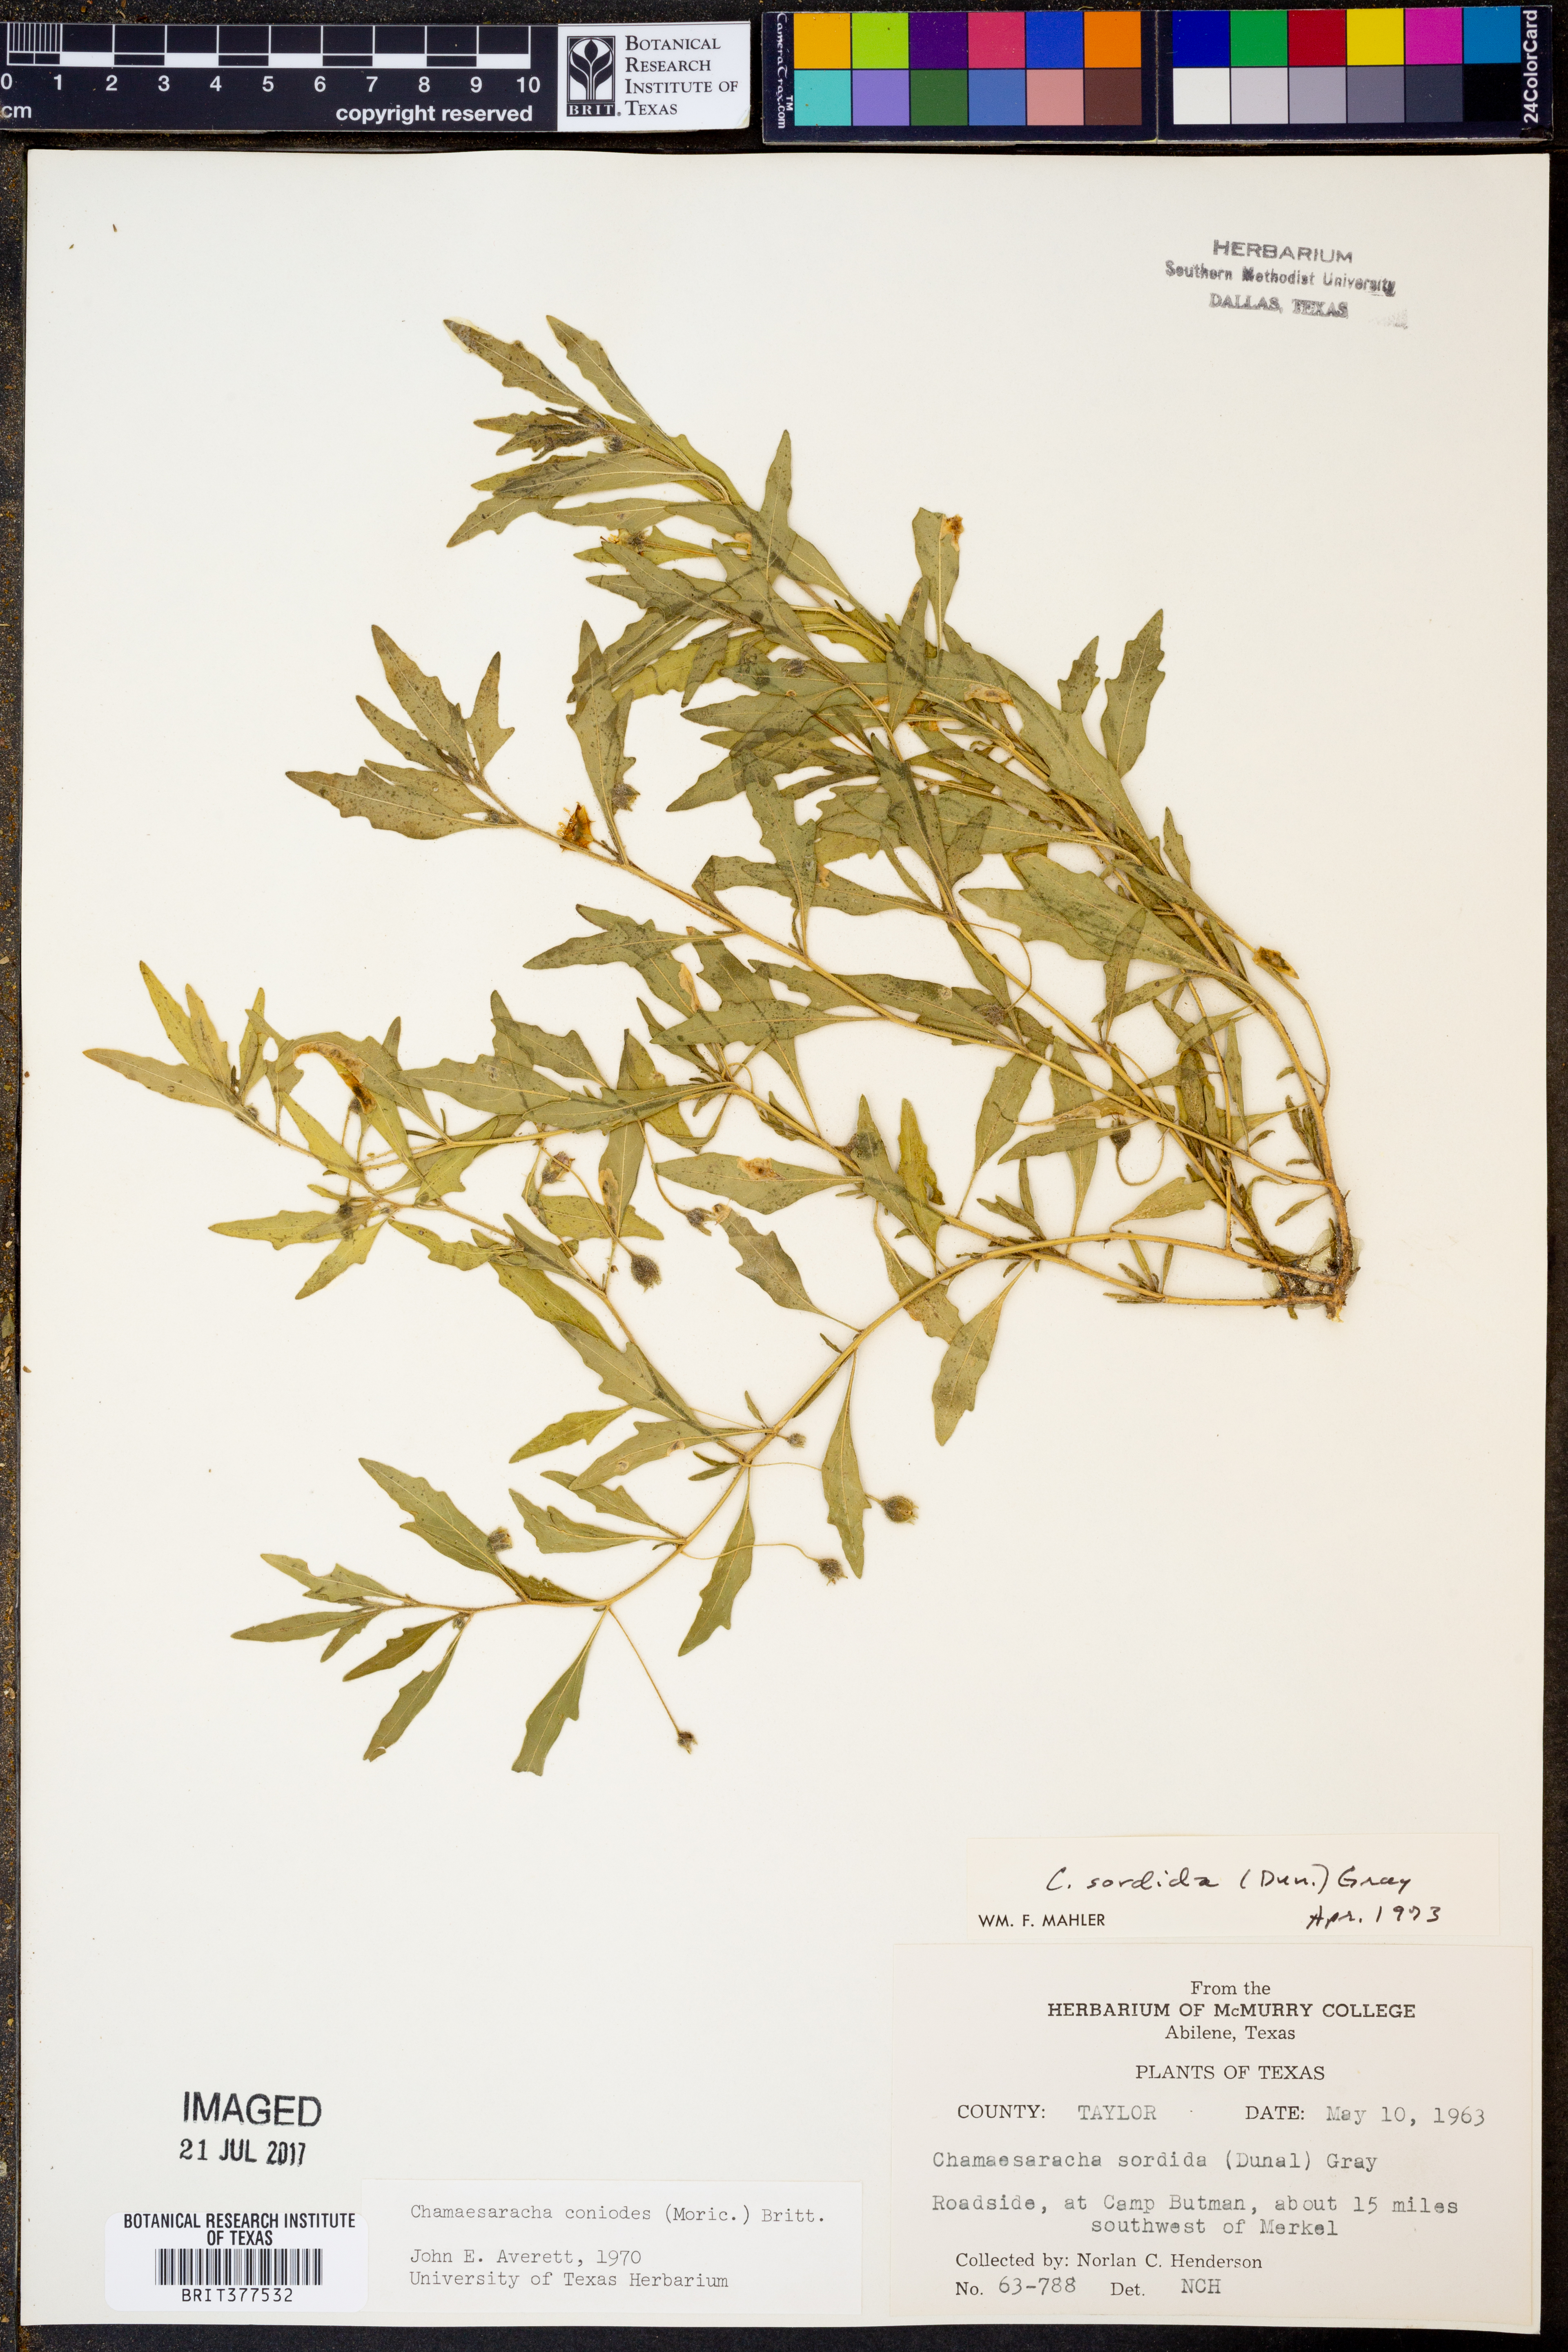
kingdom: Plantae
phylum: Tracheophyta
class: Magnoliopsida
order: Solanales
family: Solanaceae
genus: Chamaesaracha
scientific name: Chamaesaracha sordida
